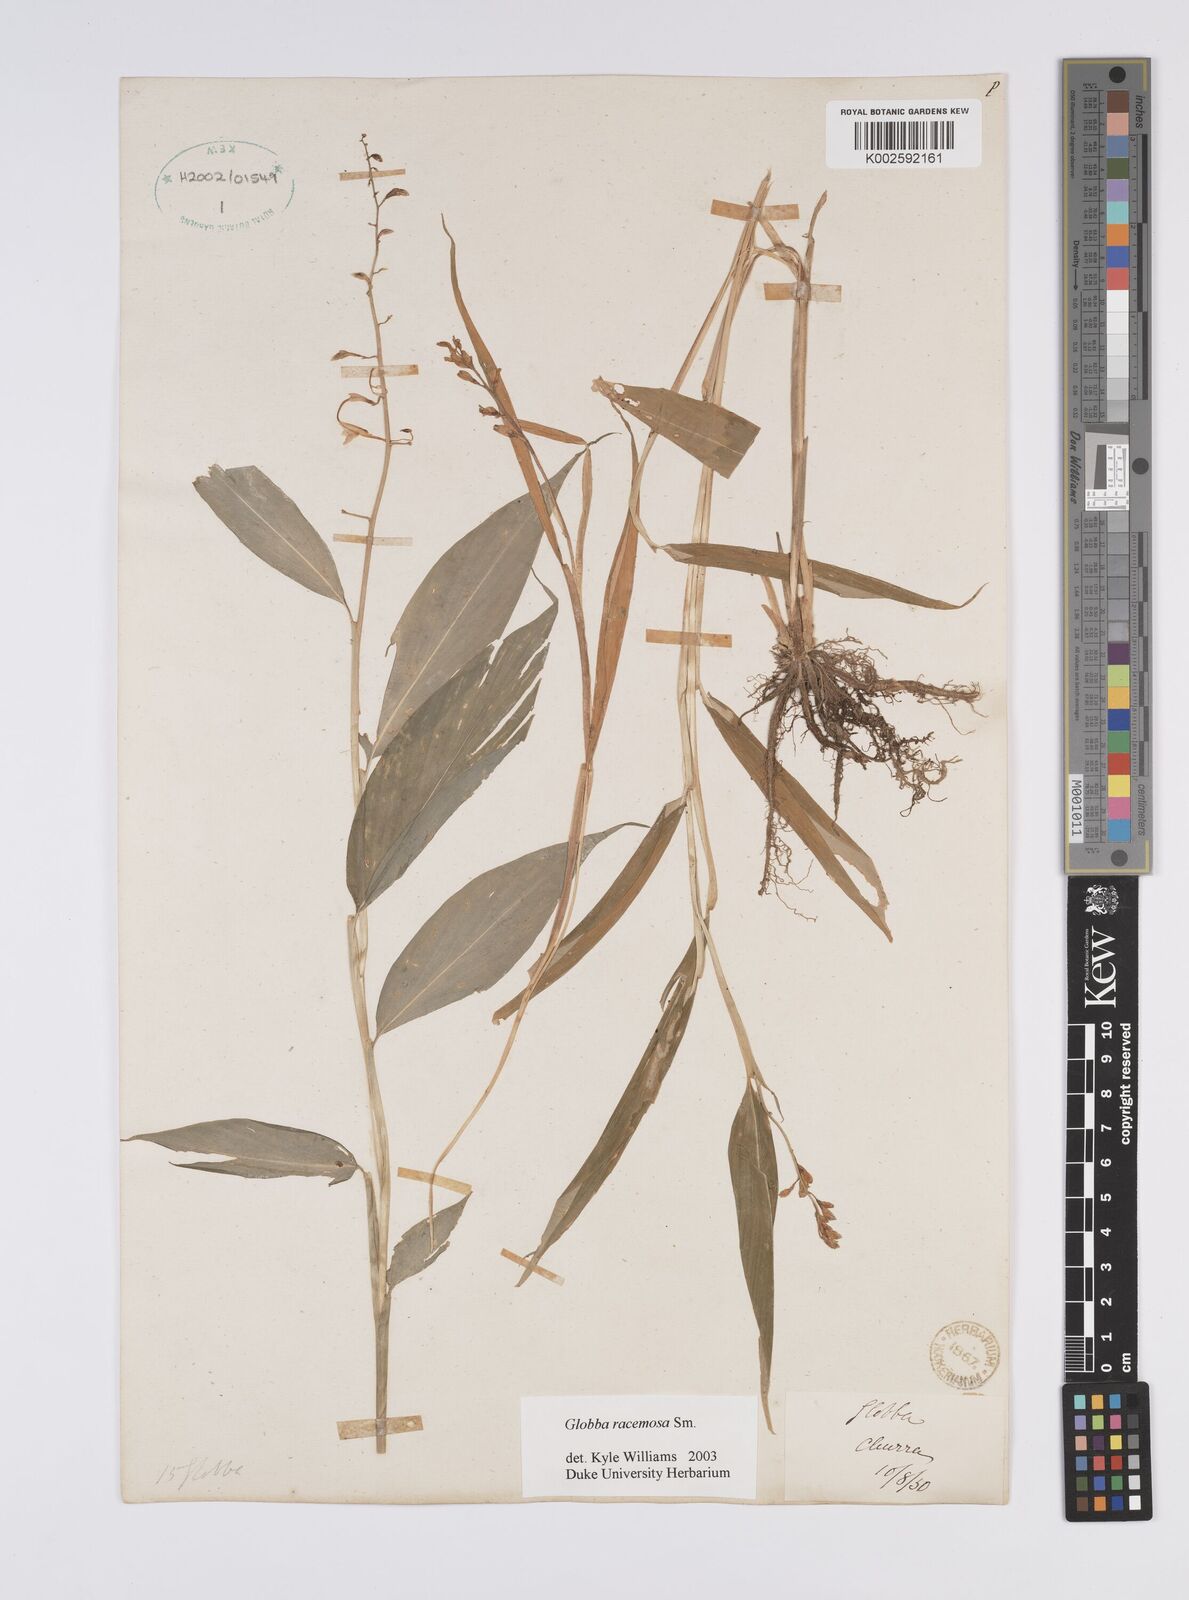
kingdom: Plantae
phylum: Tracheophyta
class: Liliopsida
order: Zingiberales
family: Zingiberaceae
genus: Globba
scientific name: Globba racemosa
